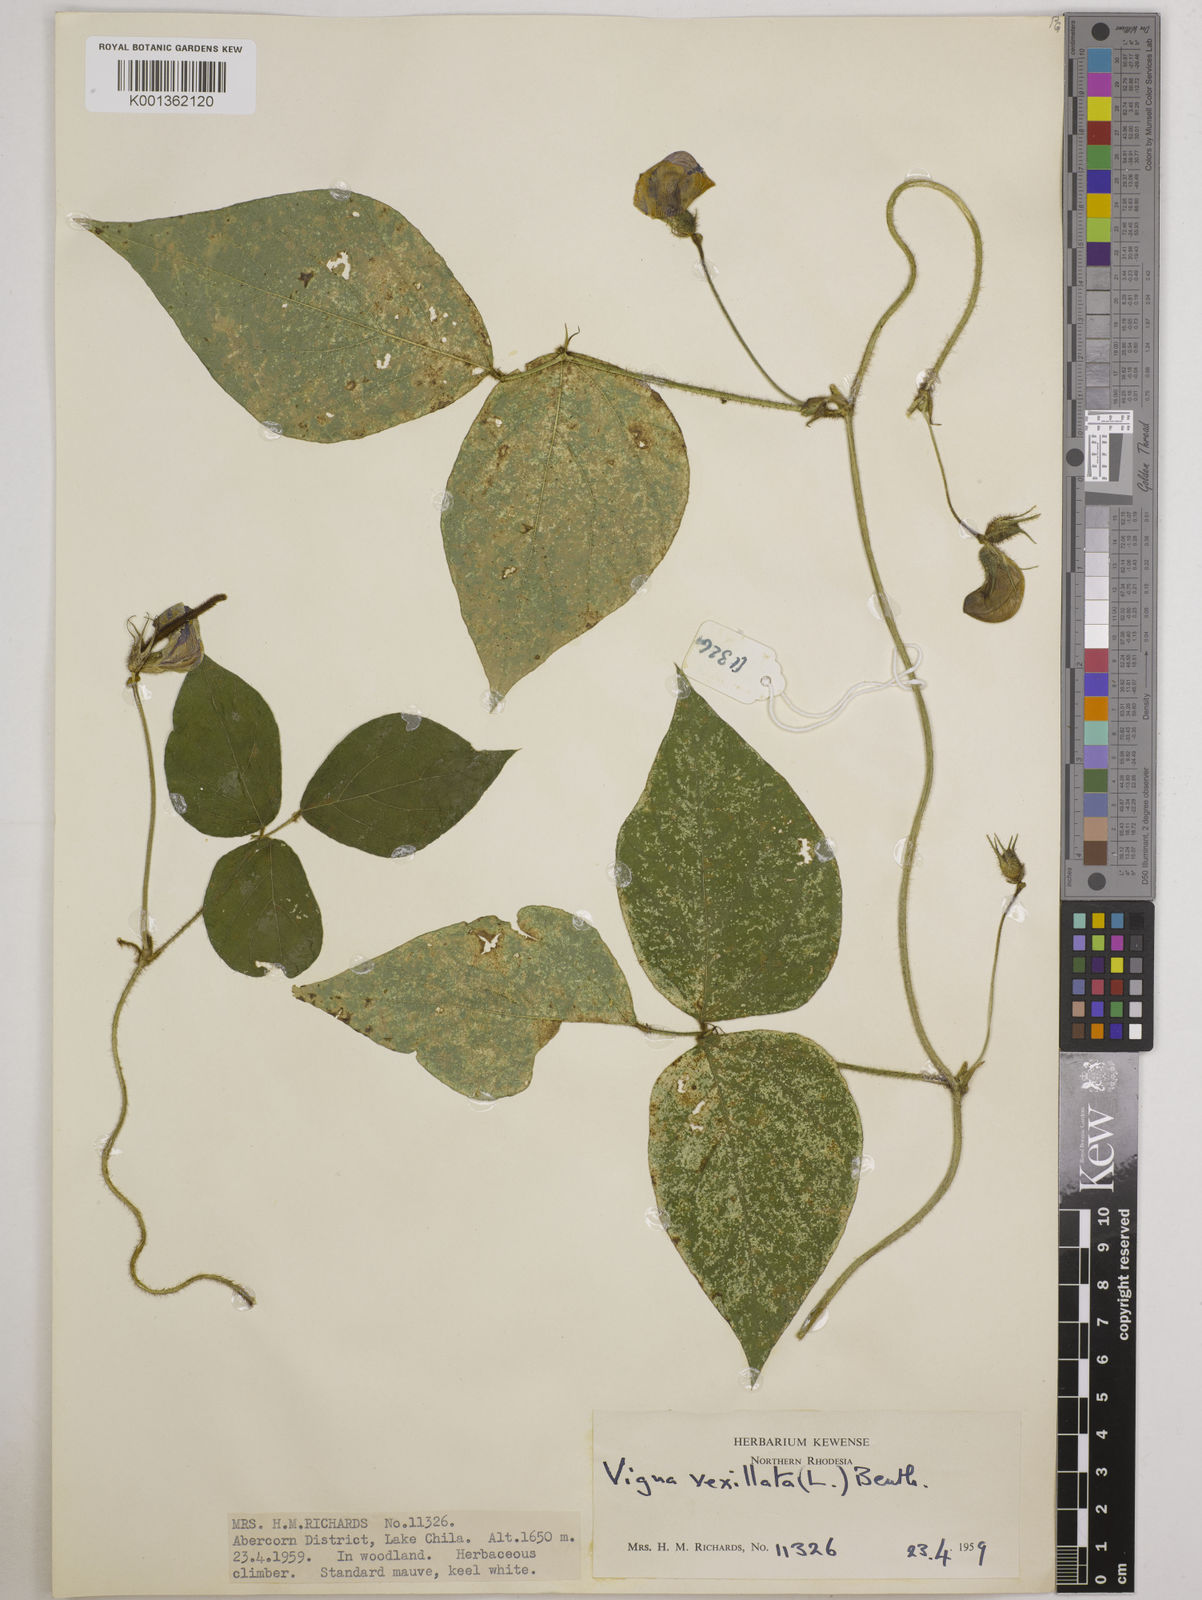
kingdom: Plantae
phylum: Tracheophyta
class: Magnoliopsida
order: Fabales
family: Fabaceae
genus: Vigna
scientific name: Vigna vexillata
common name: Zombi pea
